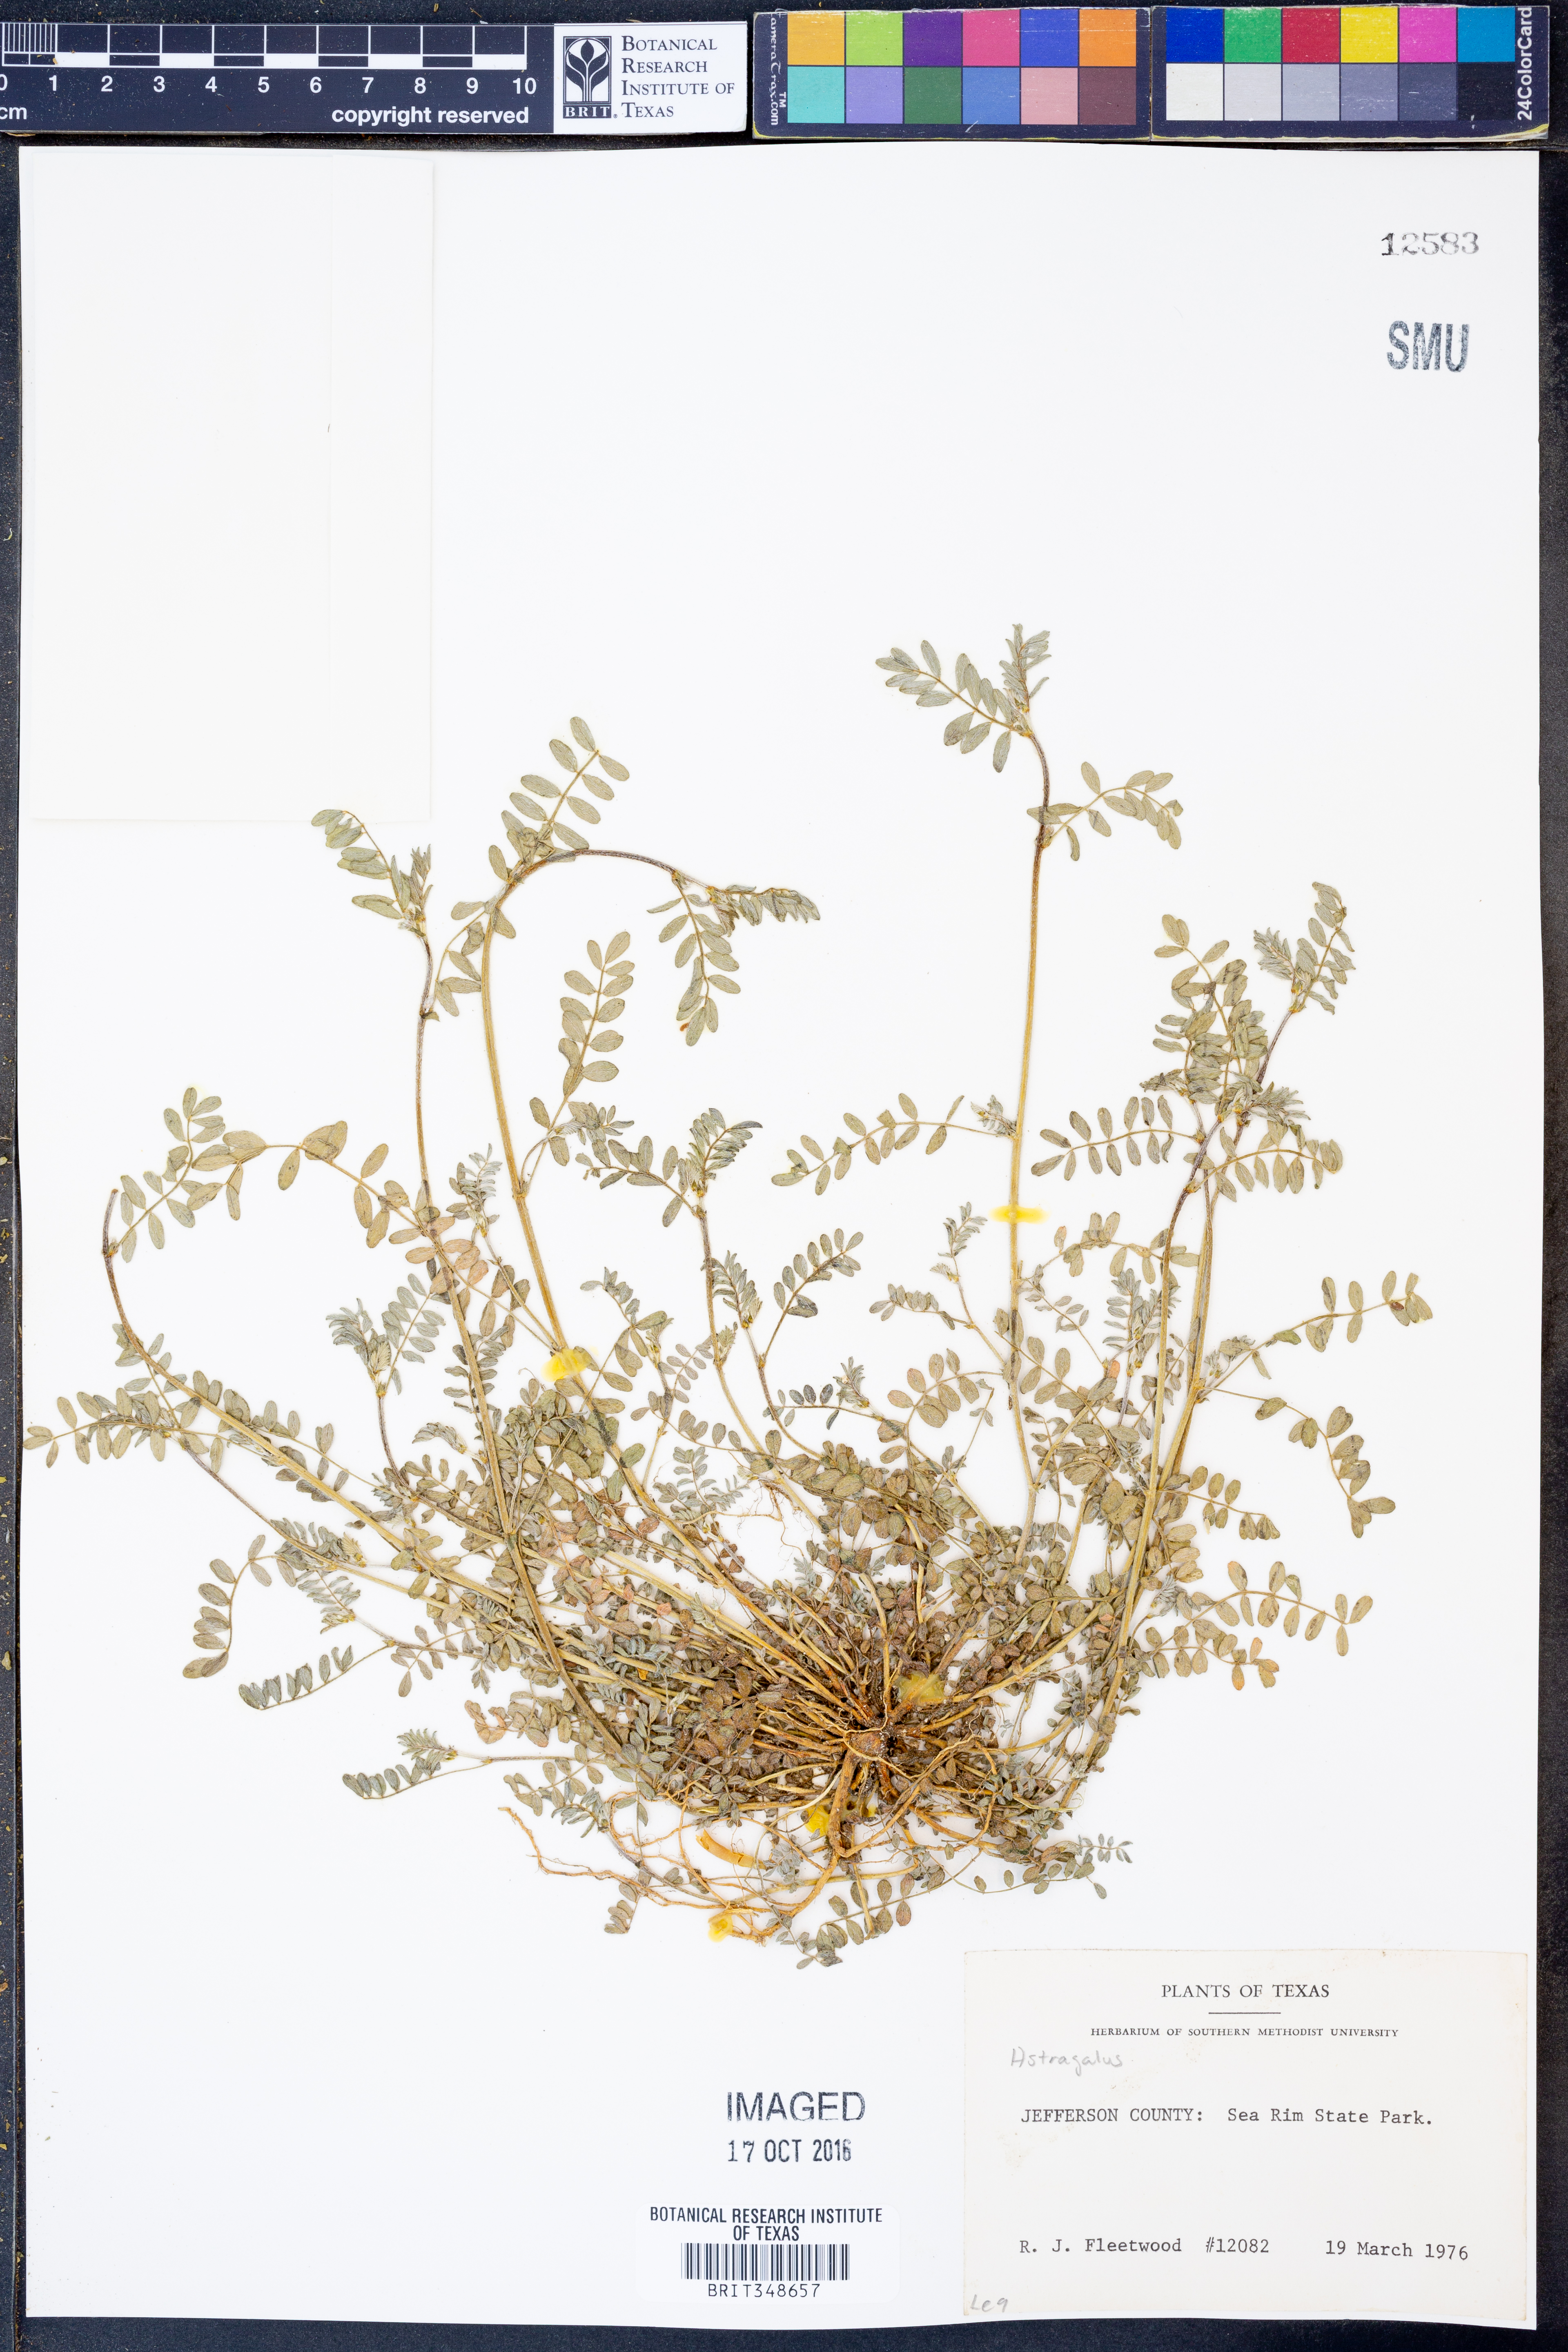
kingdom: Plantae
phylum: Tracheophyta
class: Magnoliopsida
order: Fabales
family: Fabaceae
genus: Astragalus
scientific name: Astragalus
